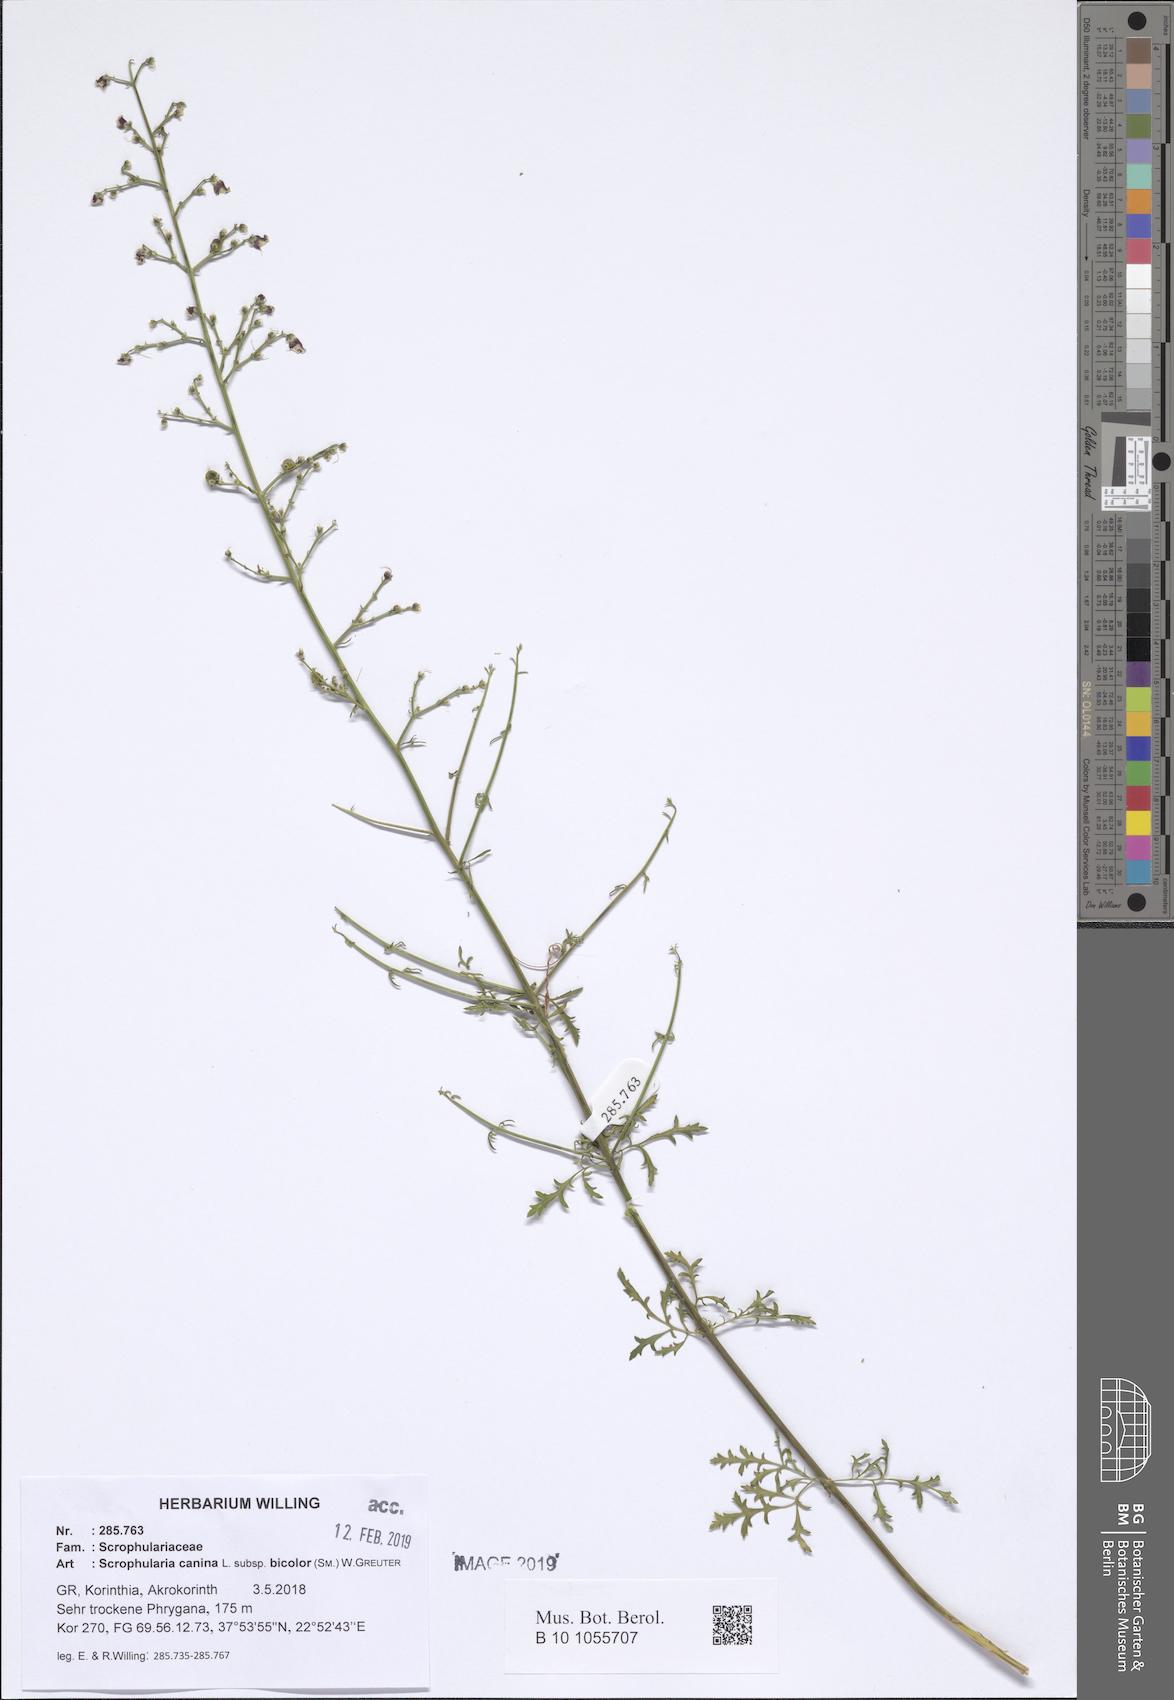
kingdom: Plantae
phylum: Tracheophyta
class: Magnoliopsida
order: Lamiales
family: Scrophulariaceae
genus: Scrophularia
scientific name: Scrophularia canina
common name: French figwort
